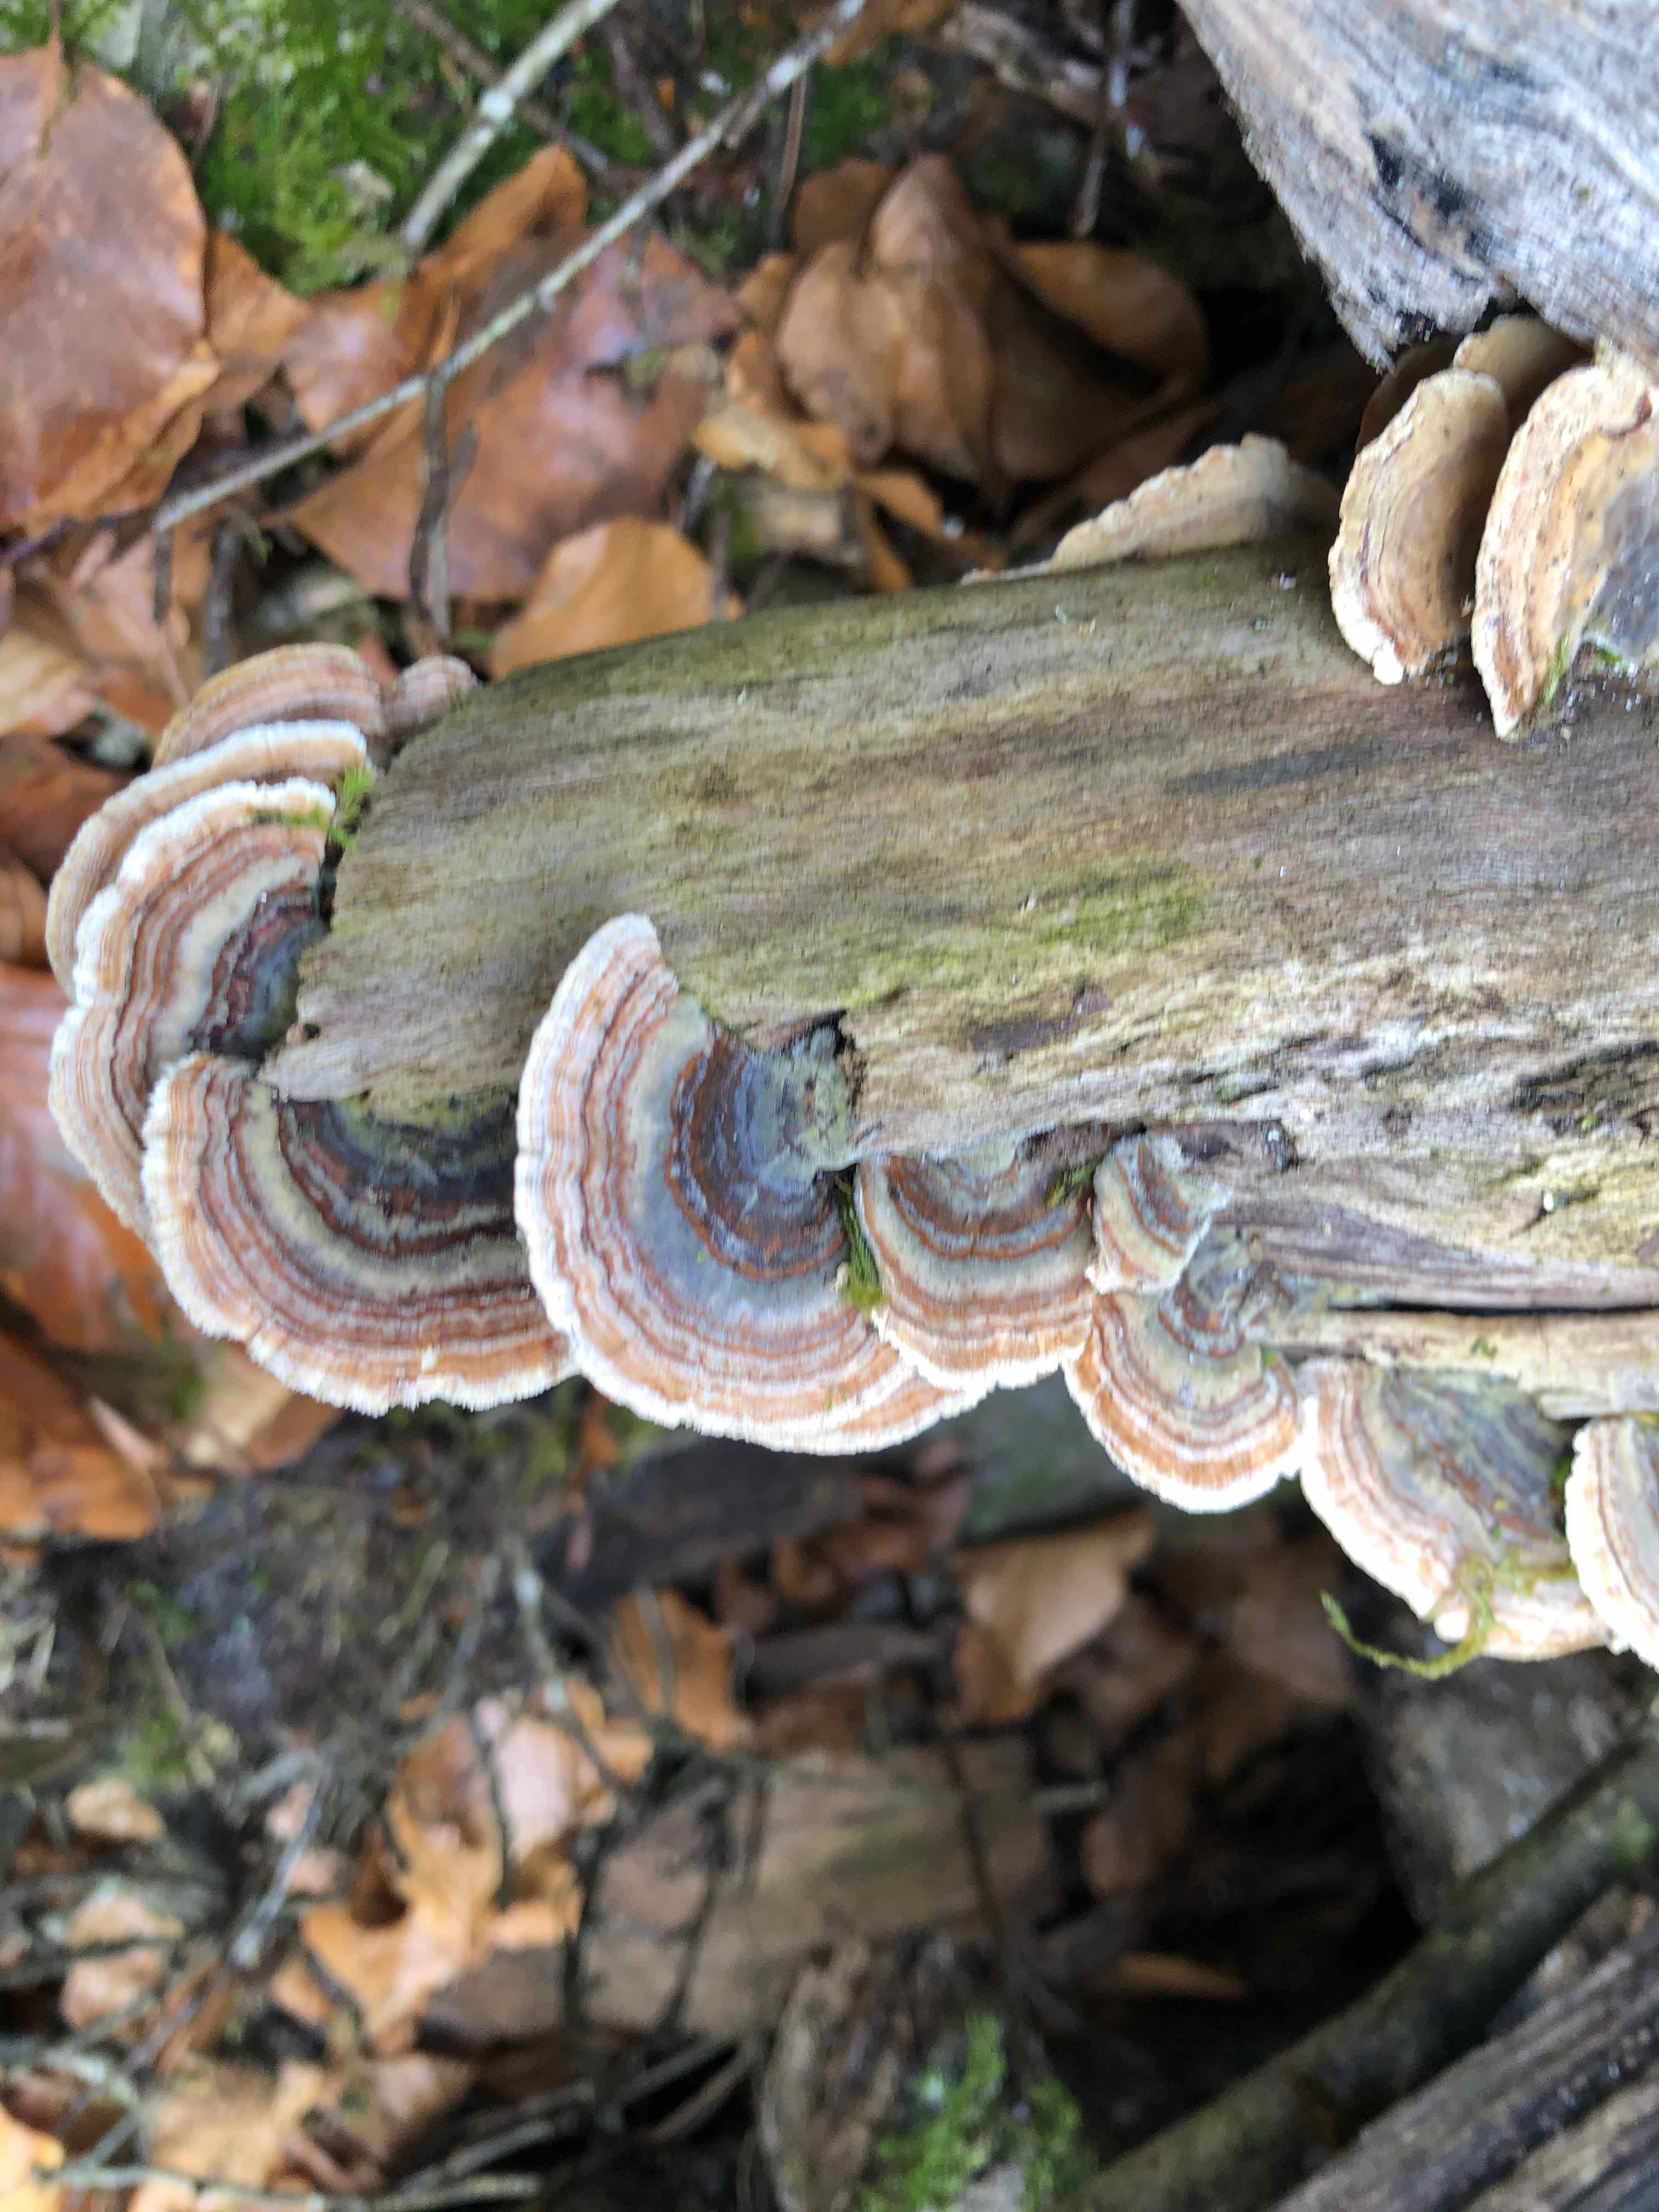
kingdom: Fungi
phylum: Basidiomycota
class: Agaricomycetes
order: Polyporales
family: Polyporaceae
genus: Trametes
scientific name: Trametes versicolor
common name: broget læderporesvamp
